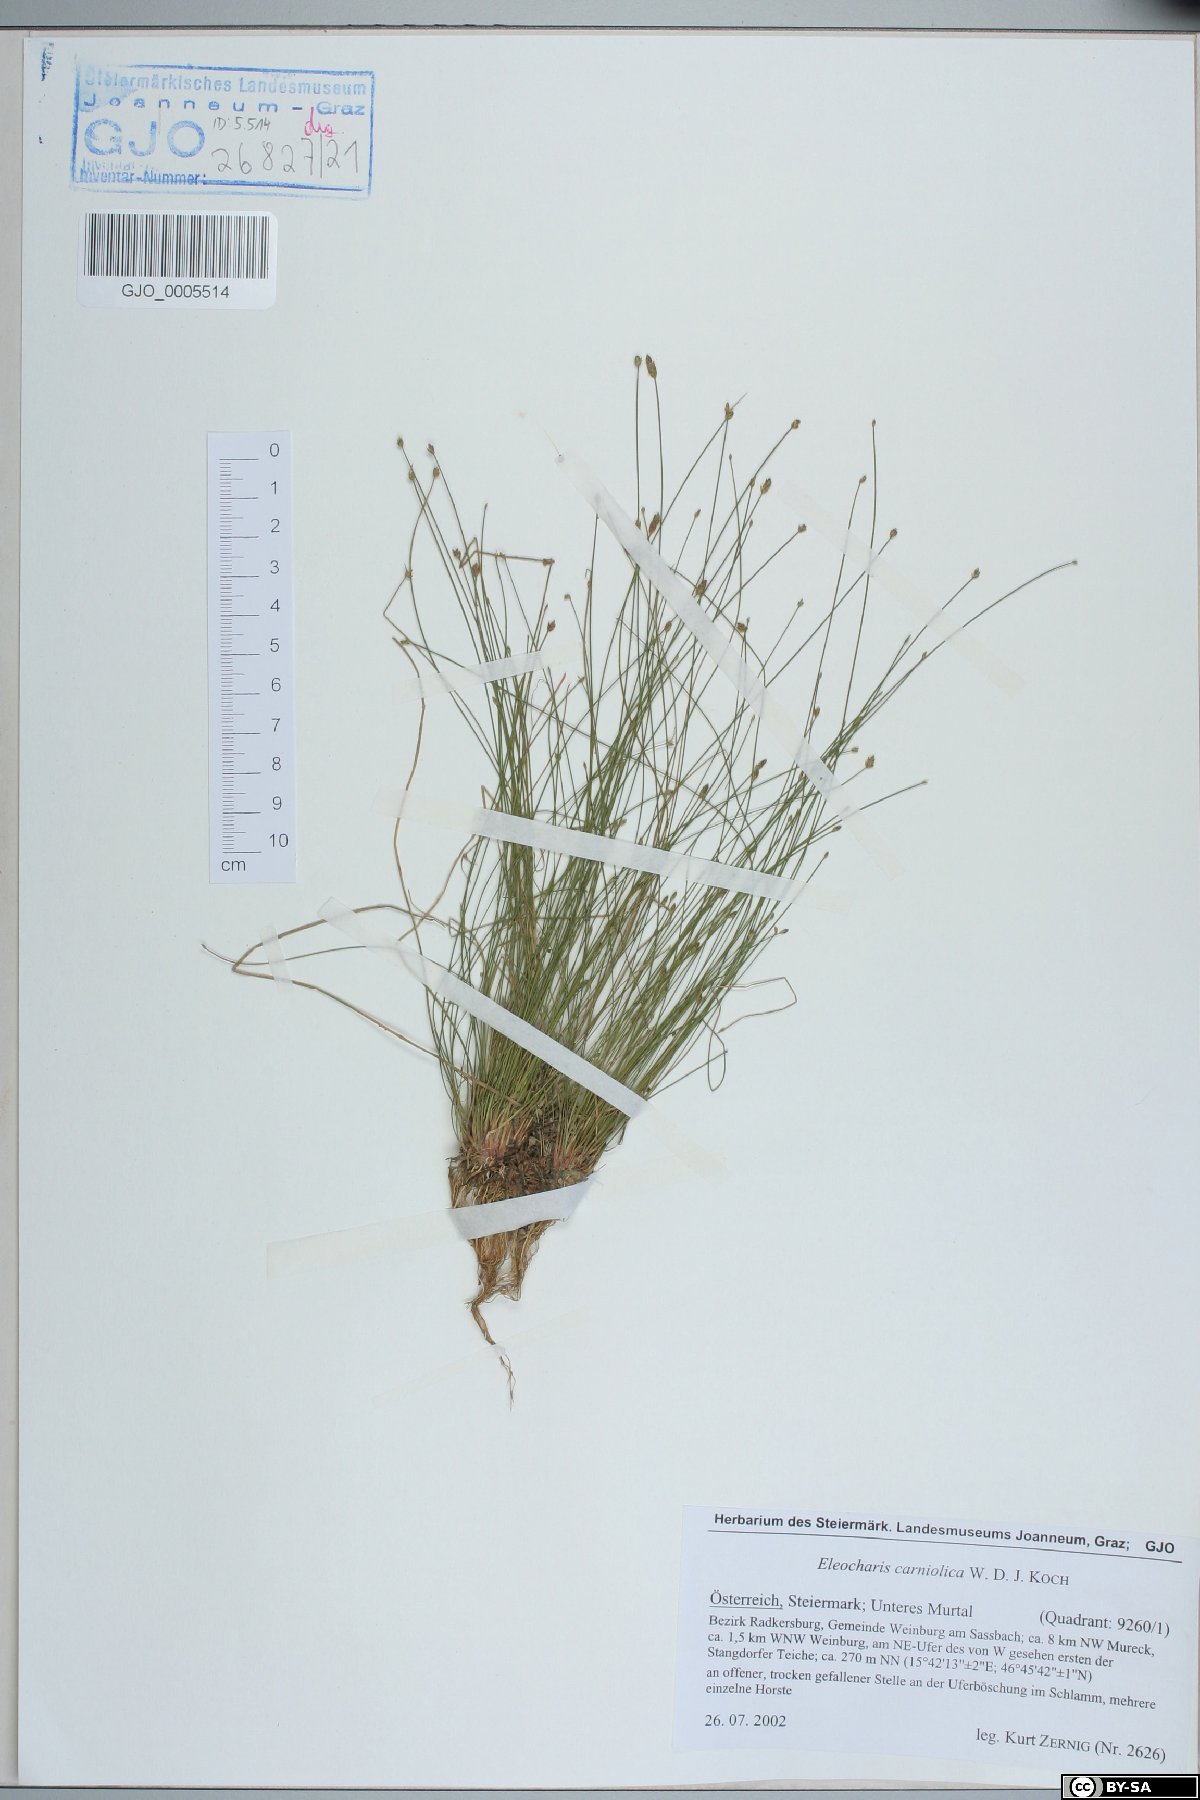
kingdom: Plantae
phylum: Tracheophyta
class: Liliopsida
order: Poales
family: Cyperaceae
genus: Eleocharis
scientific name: Eleocharis carniolica
